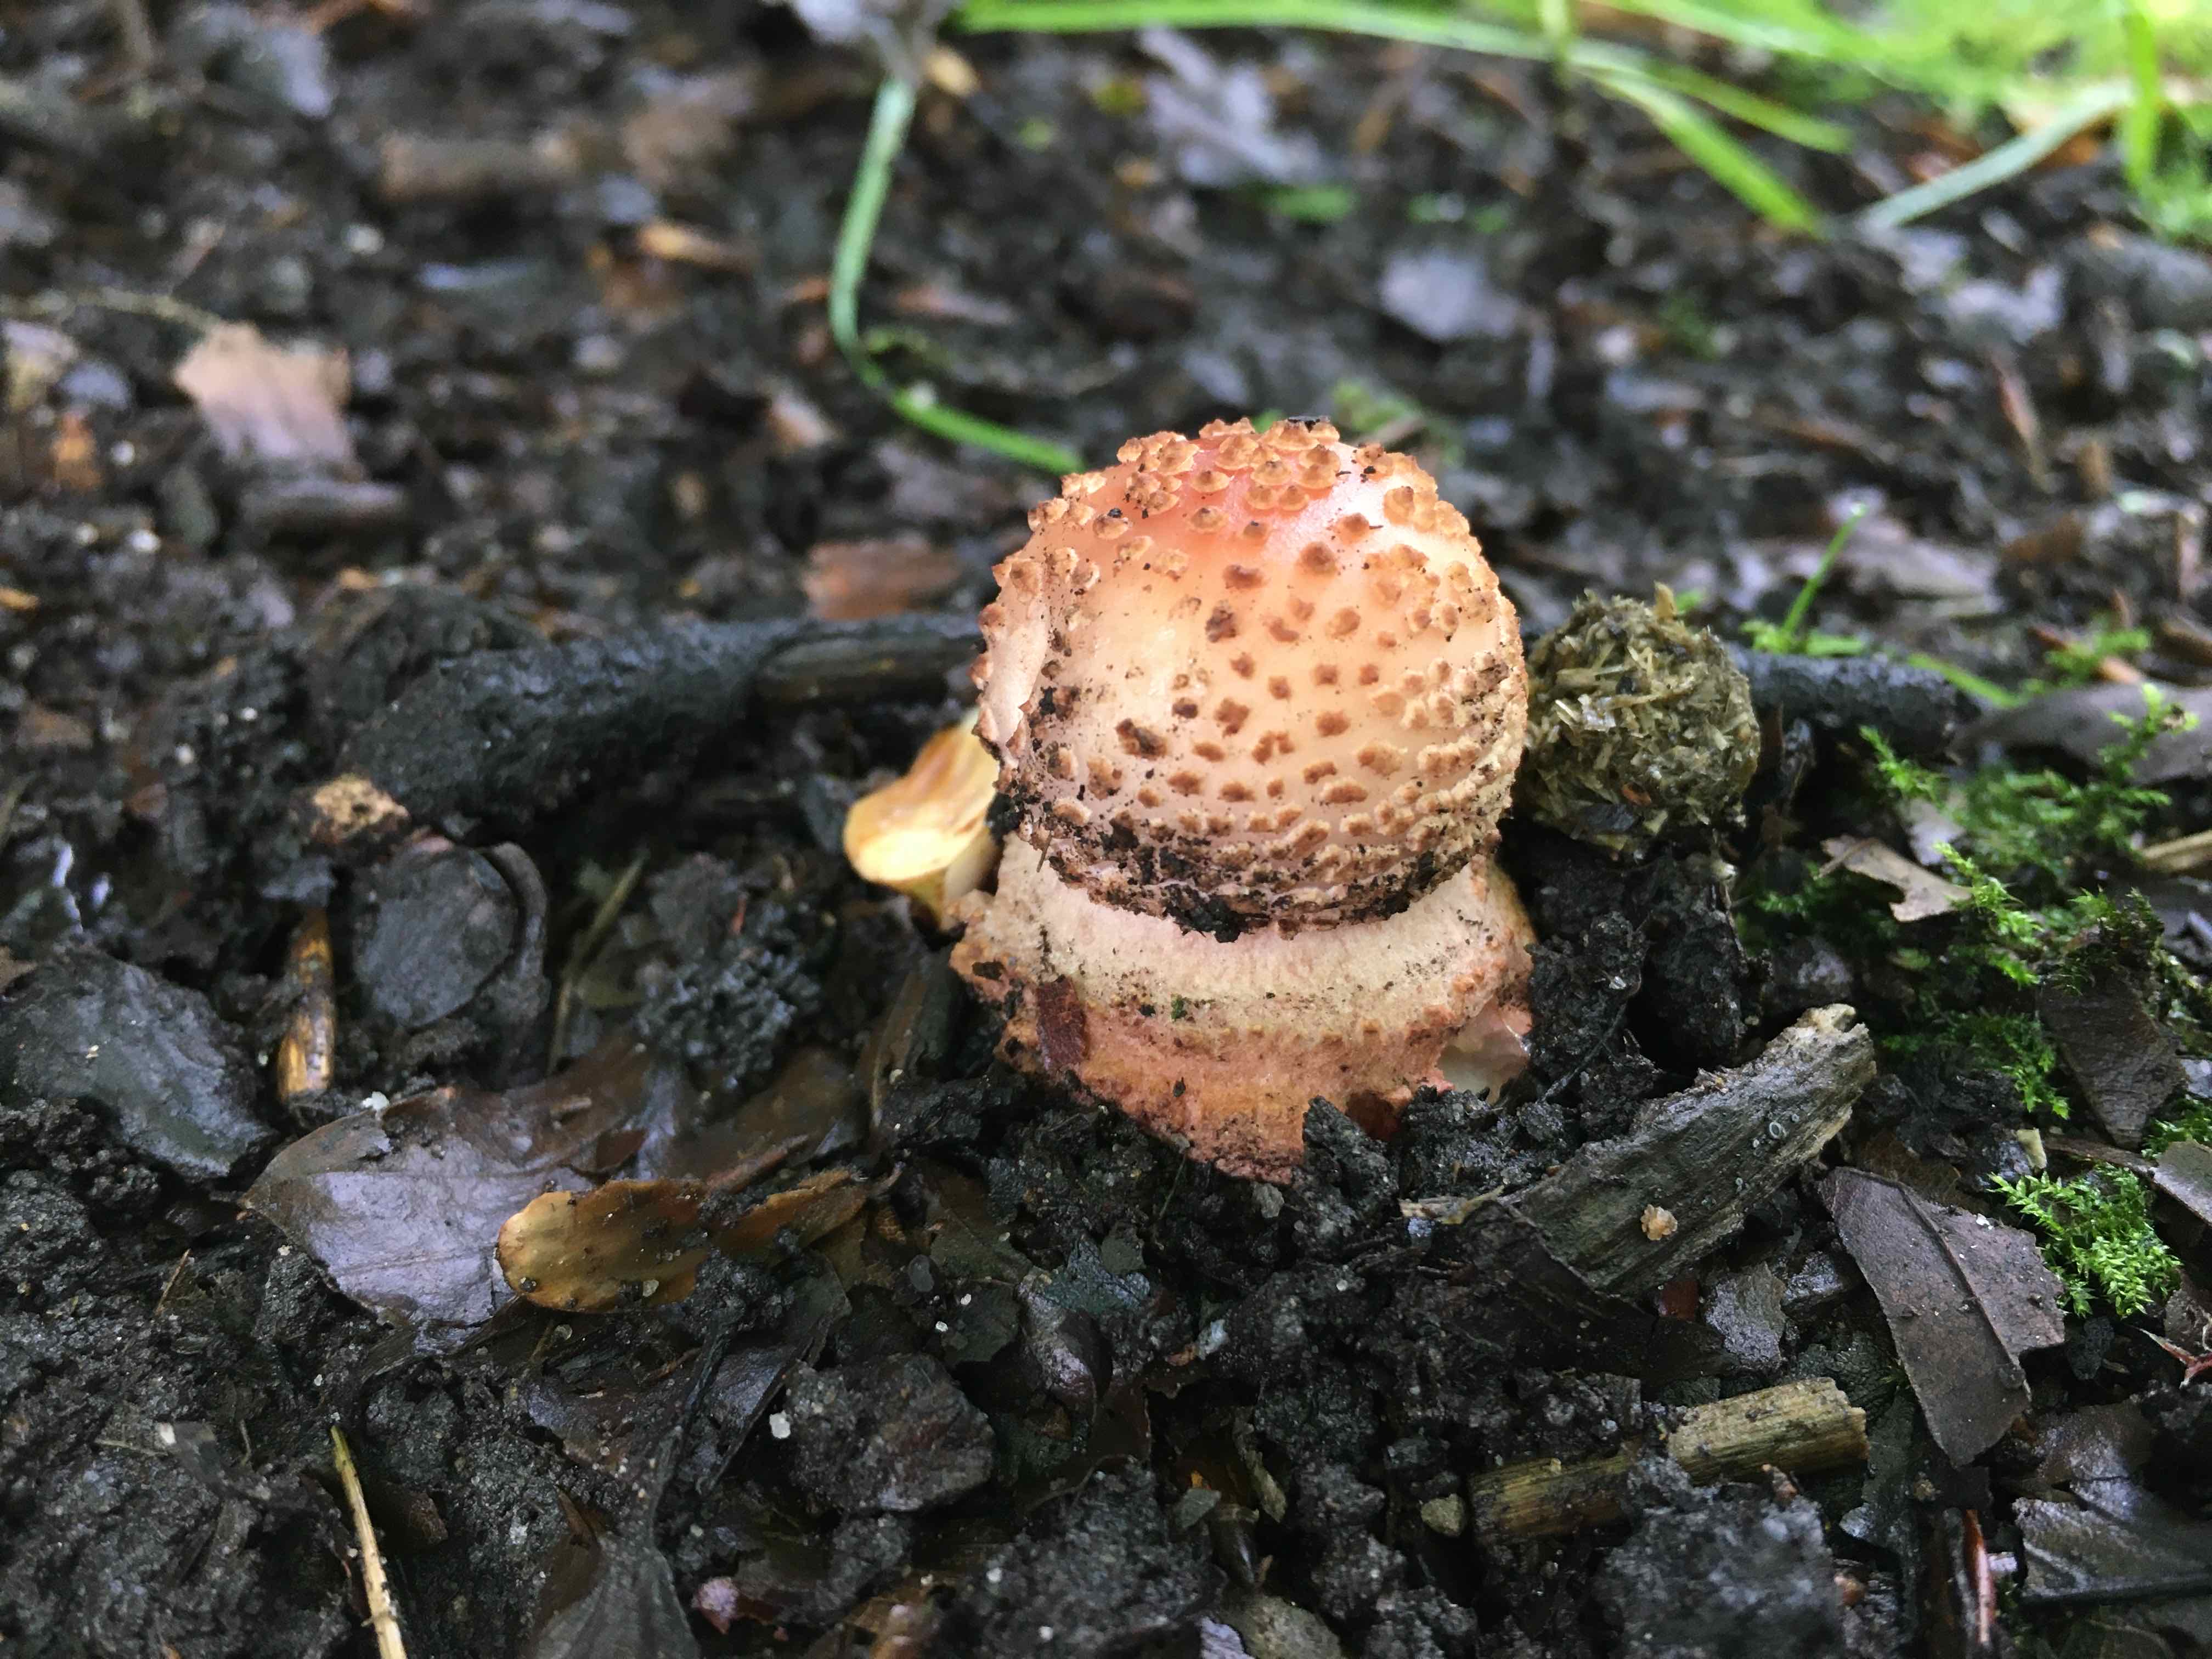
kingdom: Fungi
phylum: Basidiomycota
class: Agaricomycetes
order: Agaricales
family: Amanitaceae
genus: Amanita
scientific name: Amanita rubescens
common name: rødmende fluesvamp
